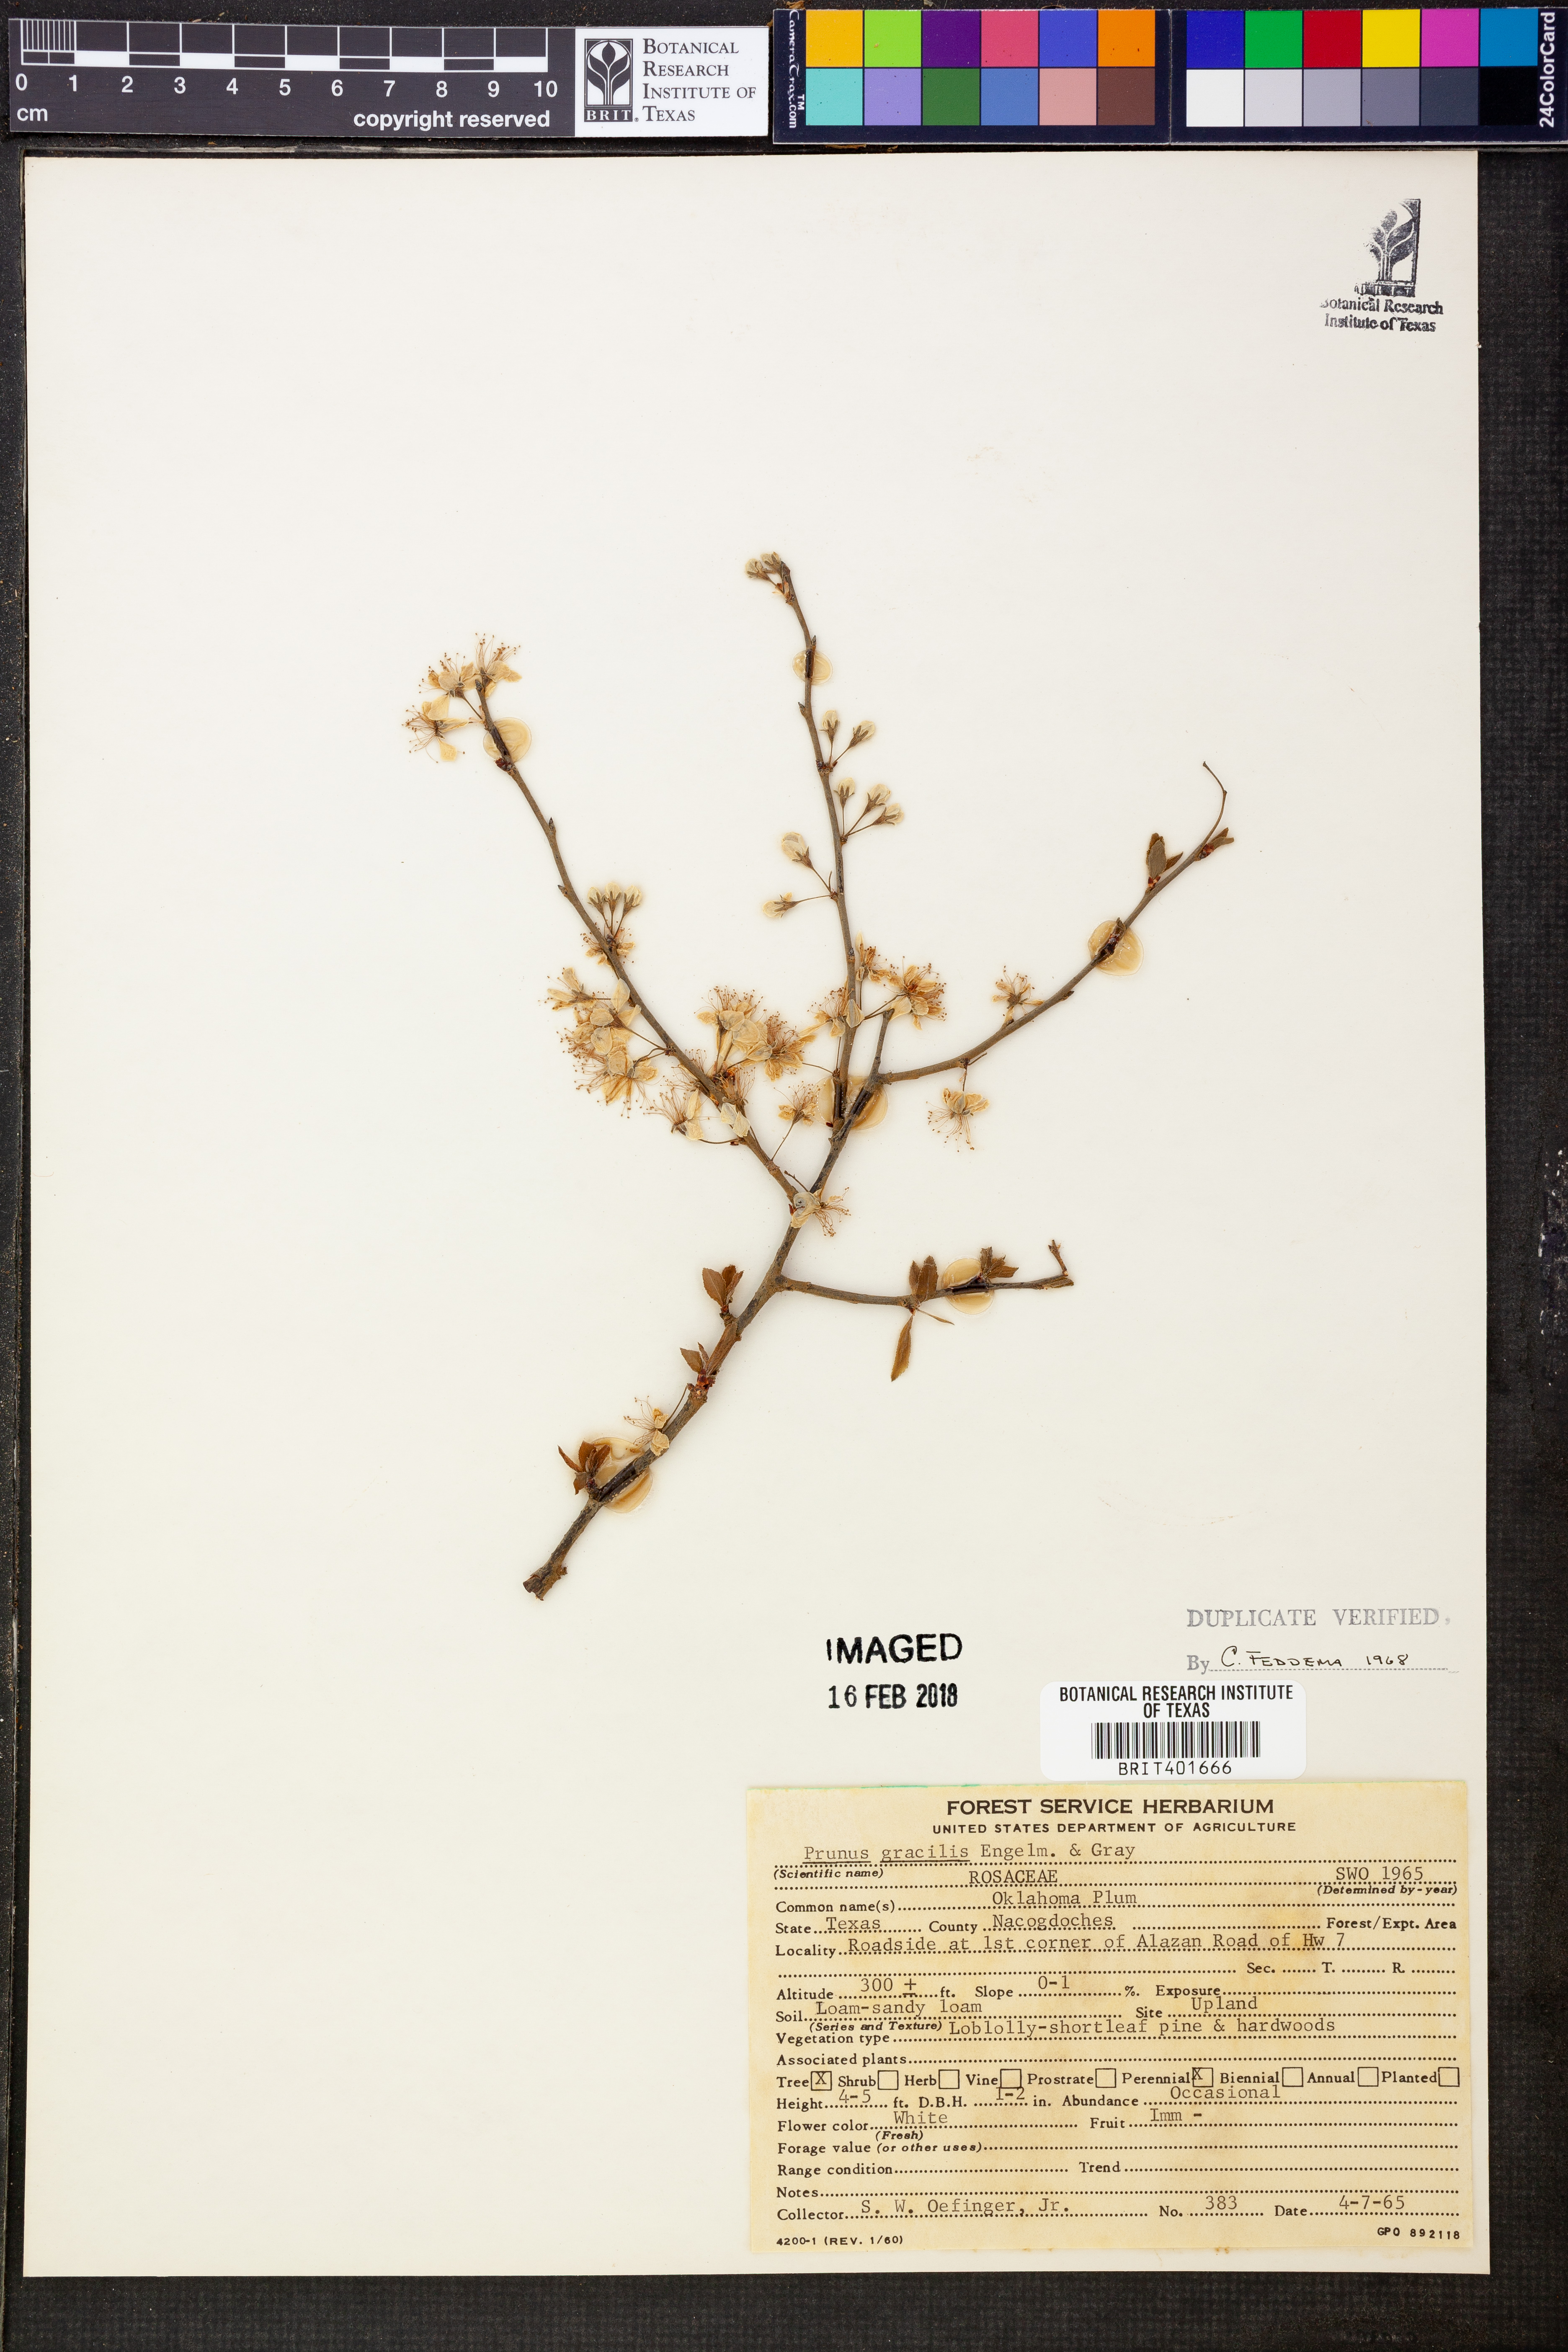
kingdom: Plantae
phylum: Tracheophyta
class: Magnoliopsida
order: Rosales
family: Rosaceae
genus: Prunus
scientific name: Prunus gracilis
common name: Oklahoma plum
